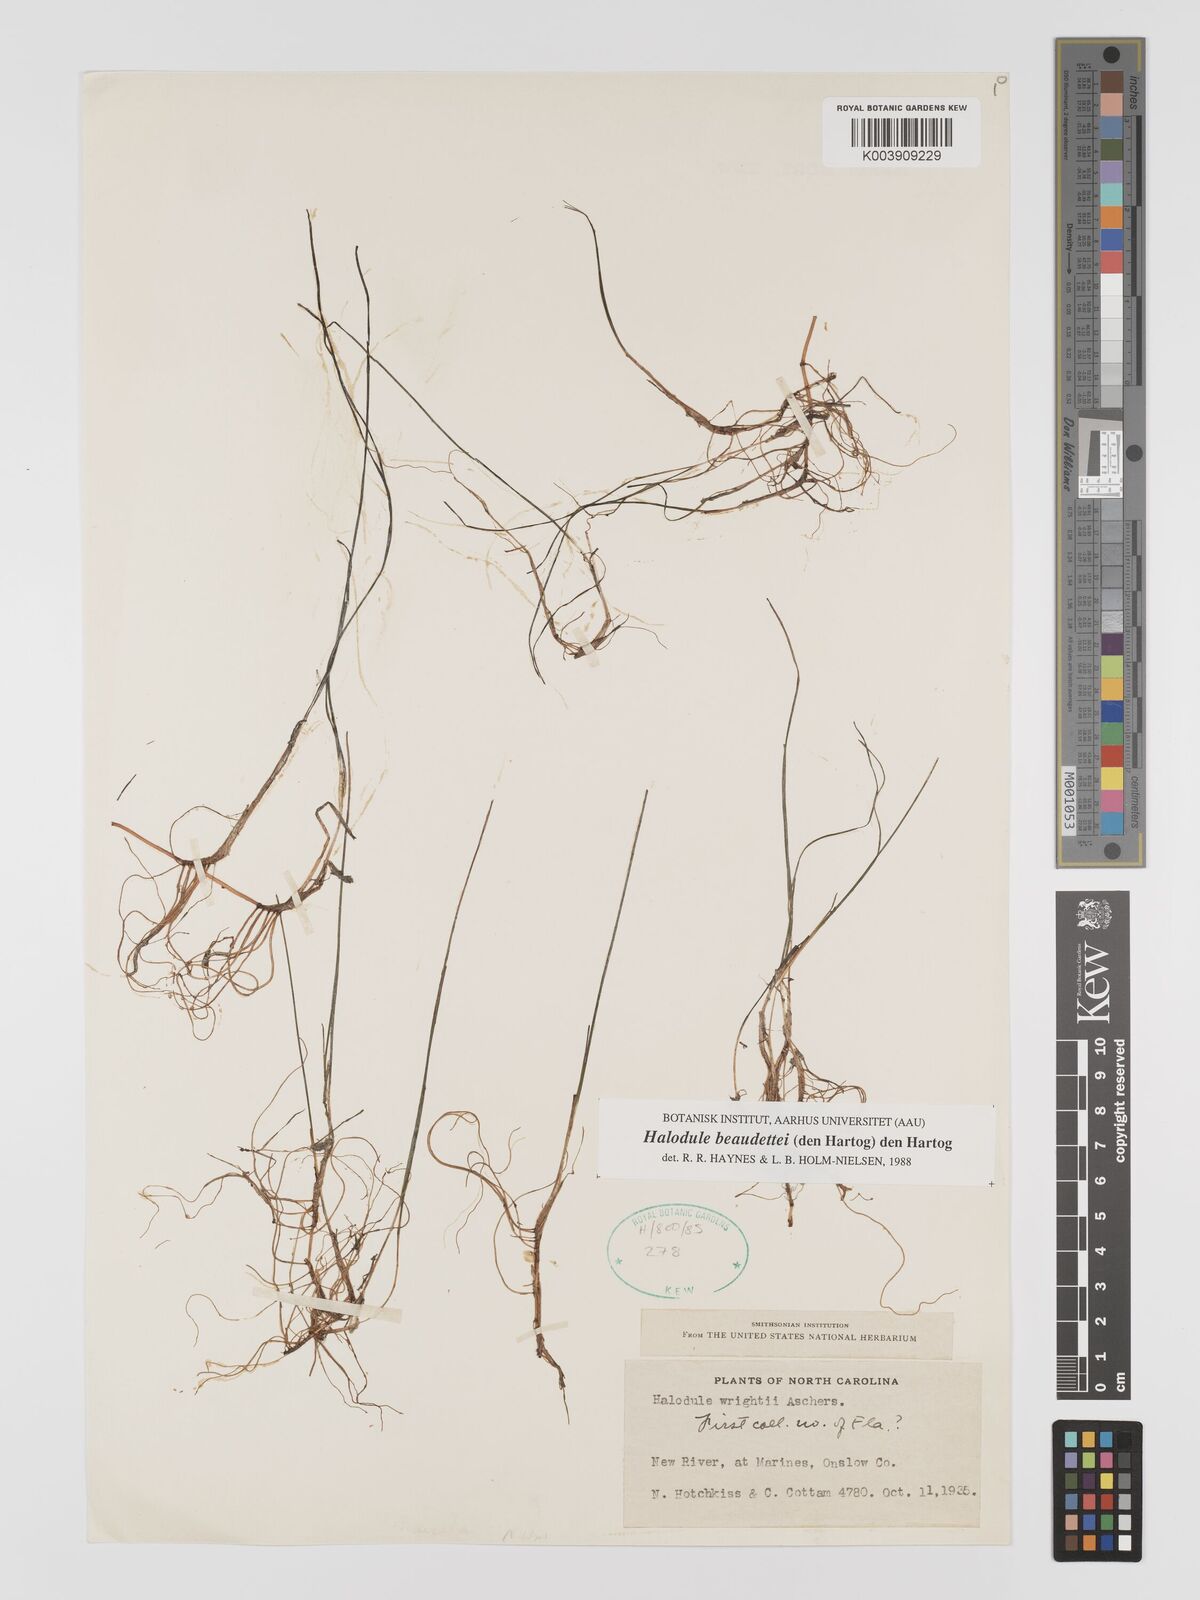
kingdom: Plantae
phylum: Tracheophyta
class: Liliopsida
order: Alismatales
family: Cymodoceaceae
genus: Halodule
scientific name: Halodule wrightii
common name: Shoalgrass
